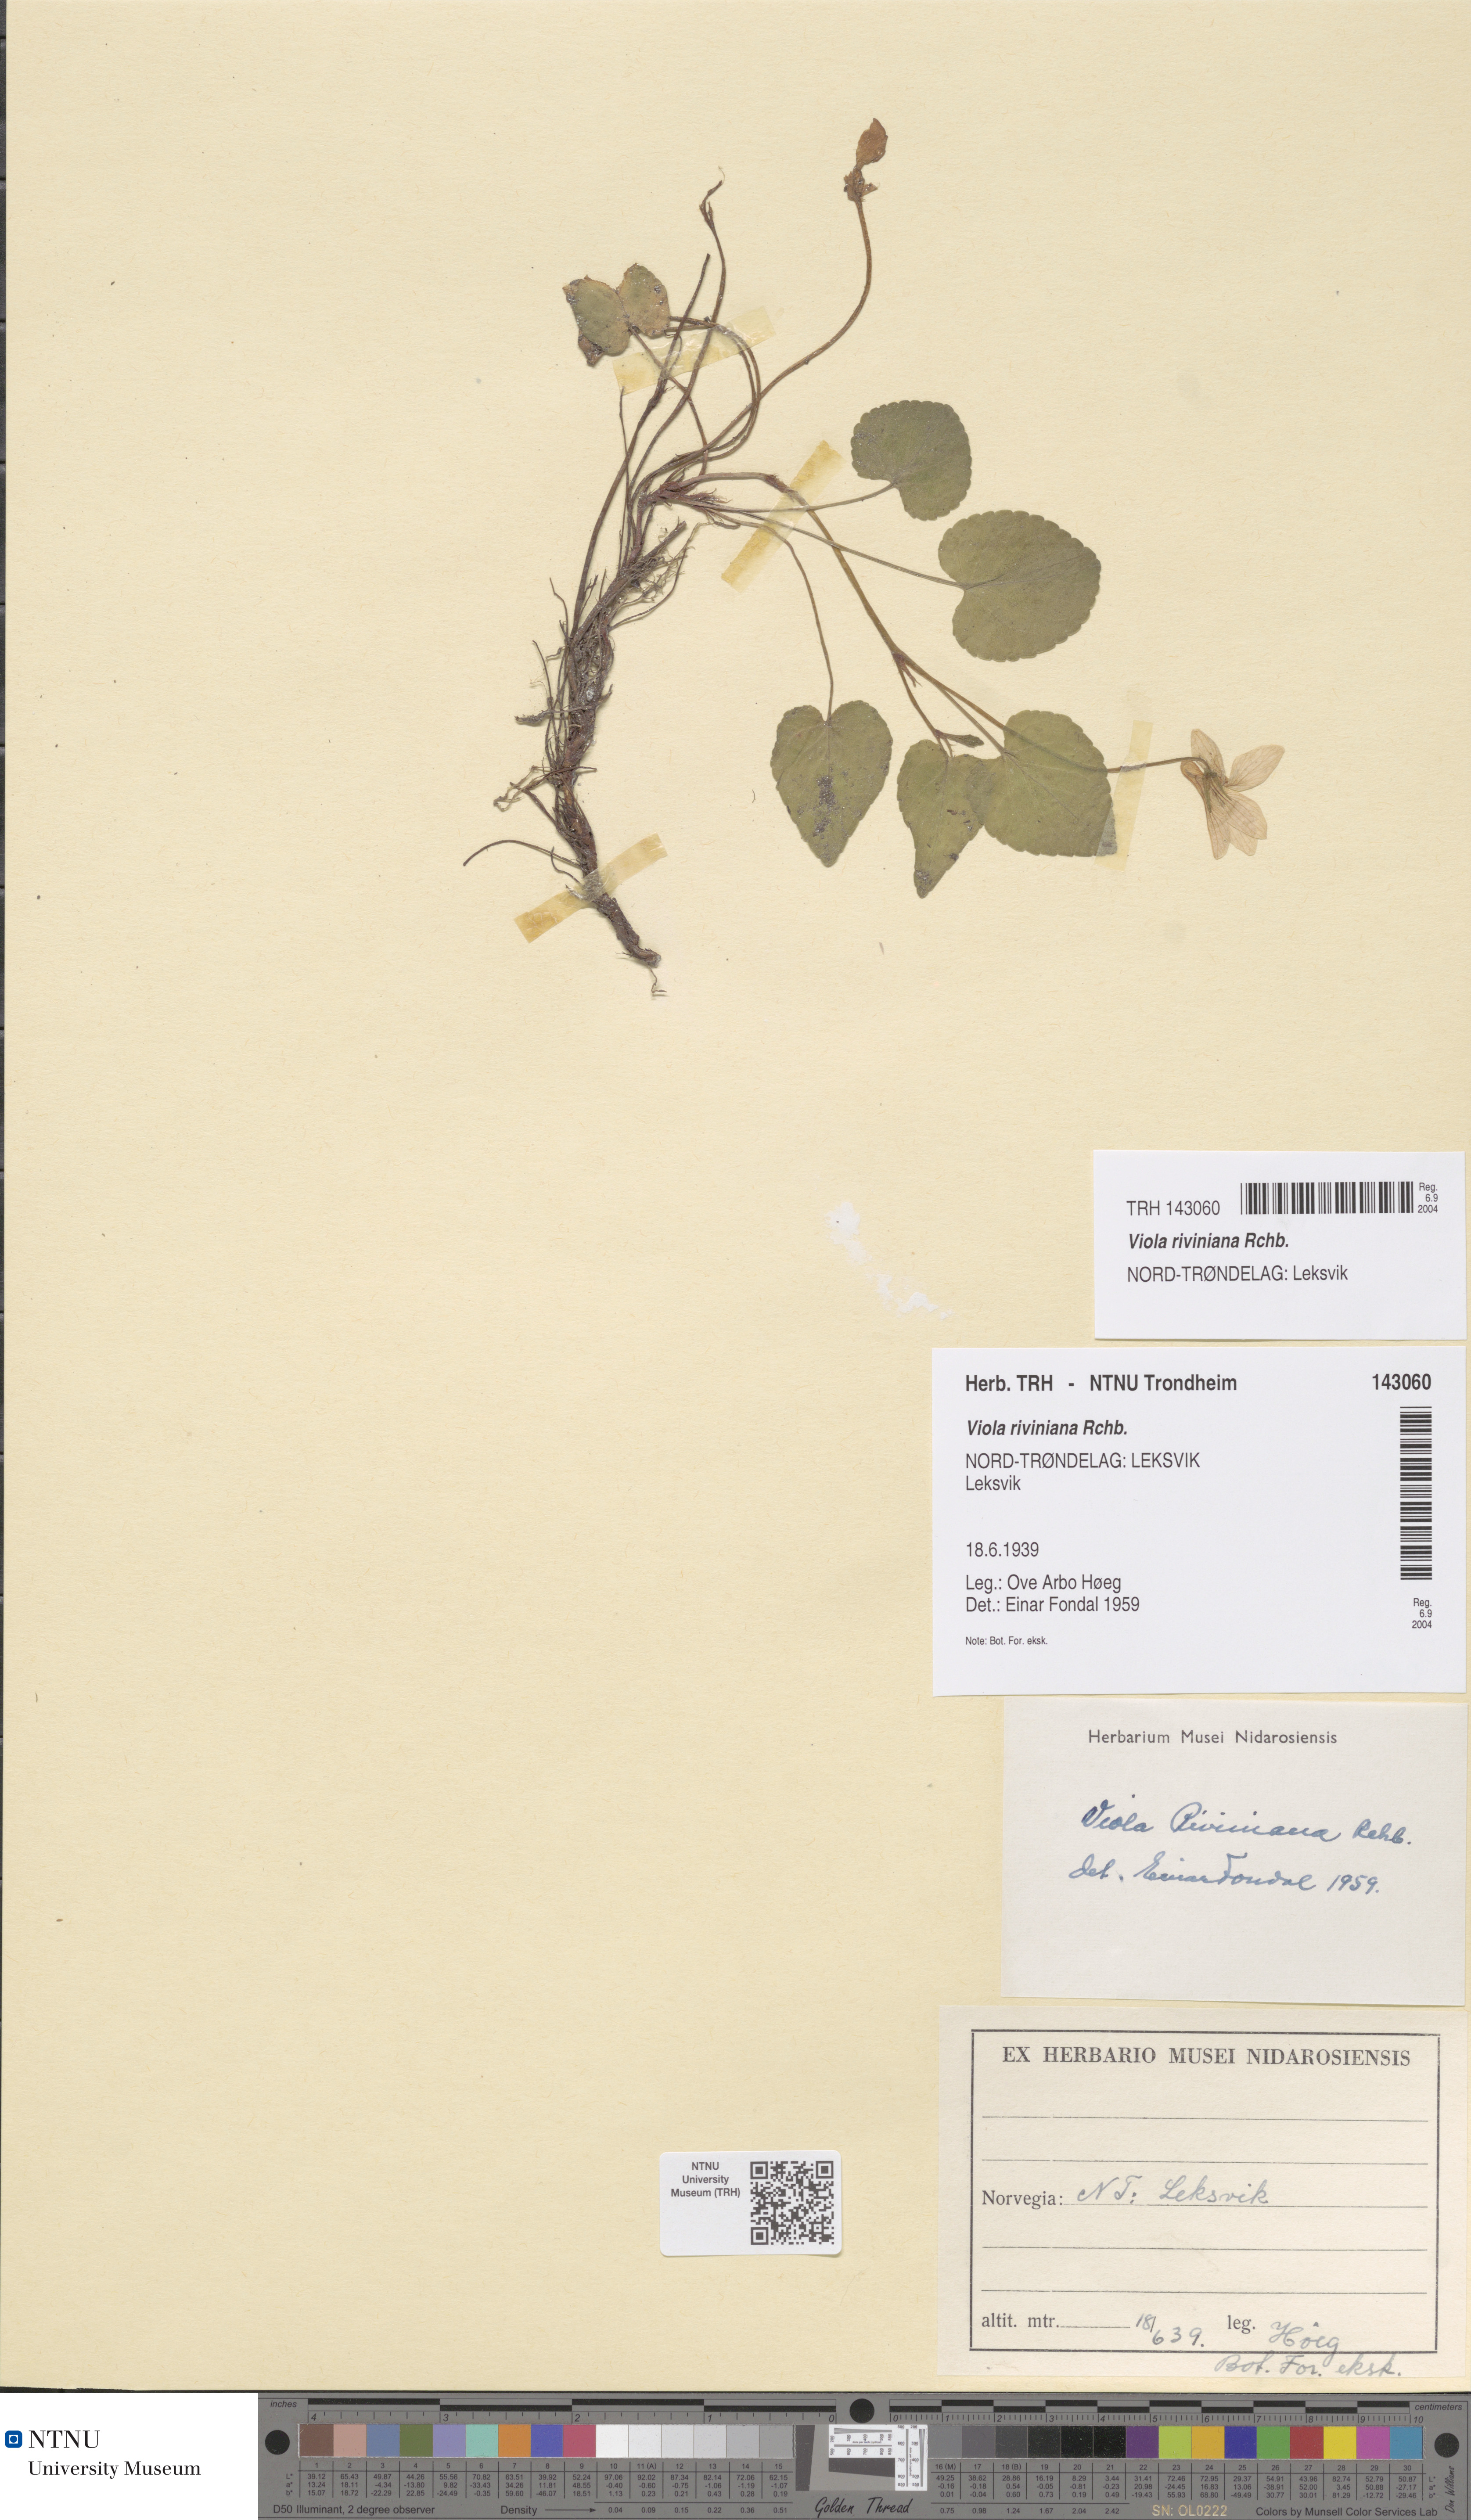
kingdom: Plantae
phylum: Tracheophyta
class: Magnoliopsida
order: Malpighiales
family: Violaceae
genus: Viola
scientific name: Viola riviniana
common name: Common dog-violet
